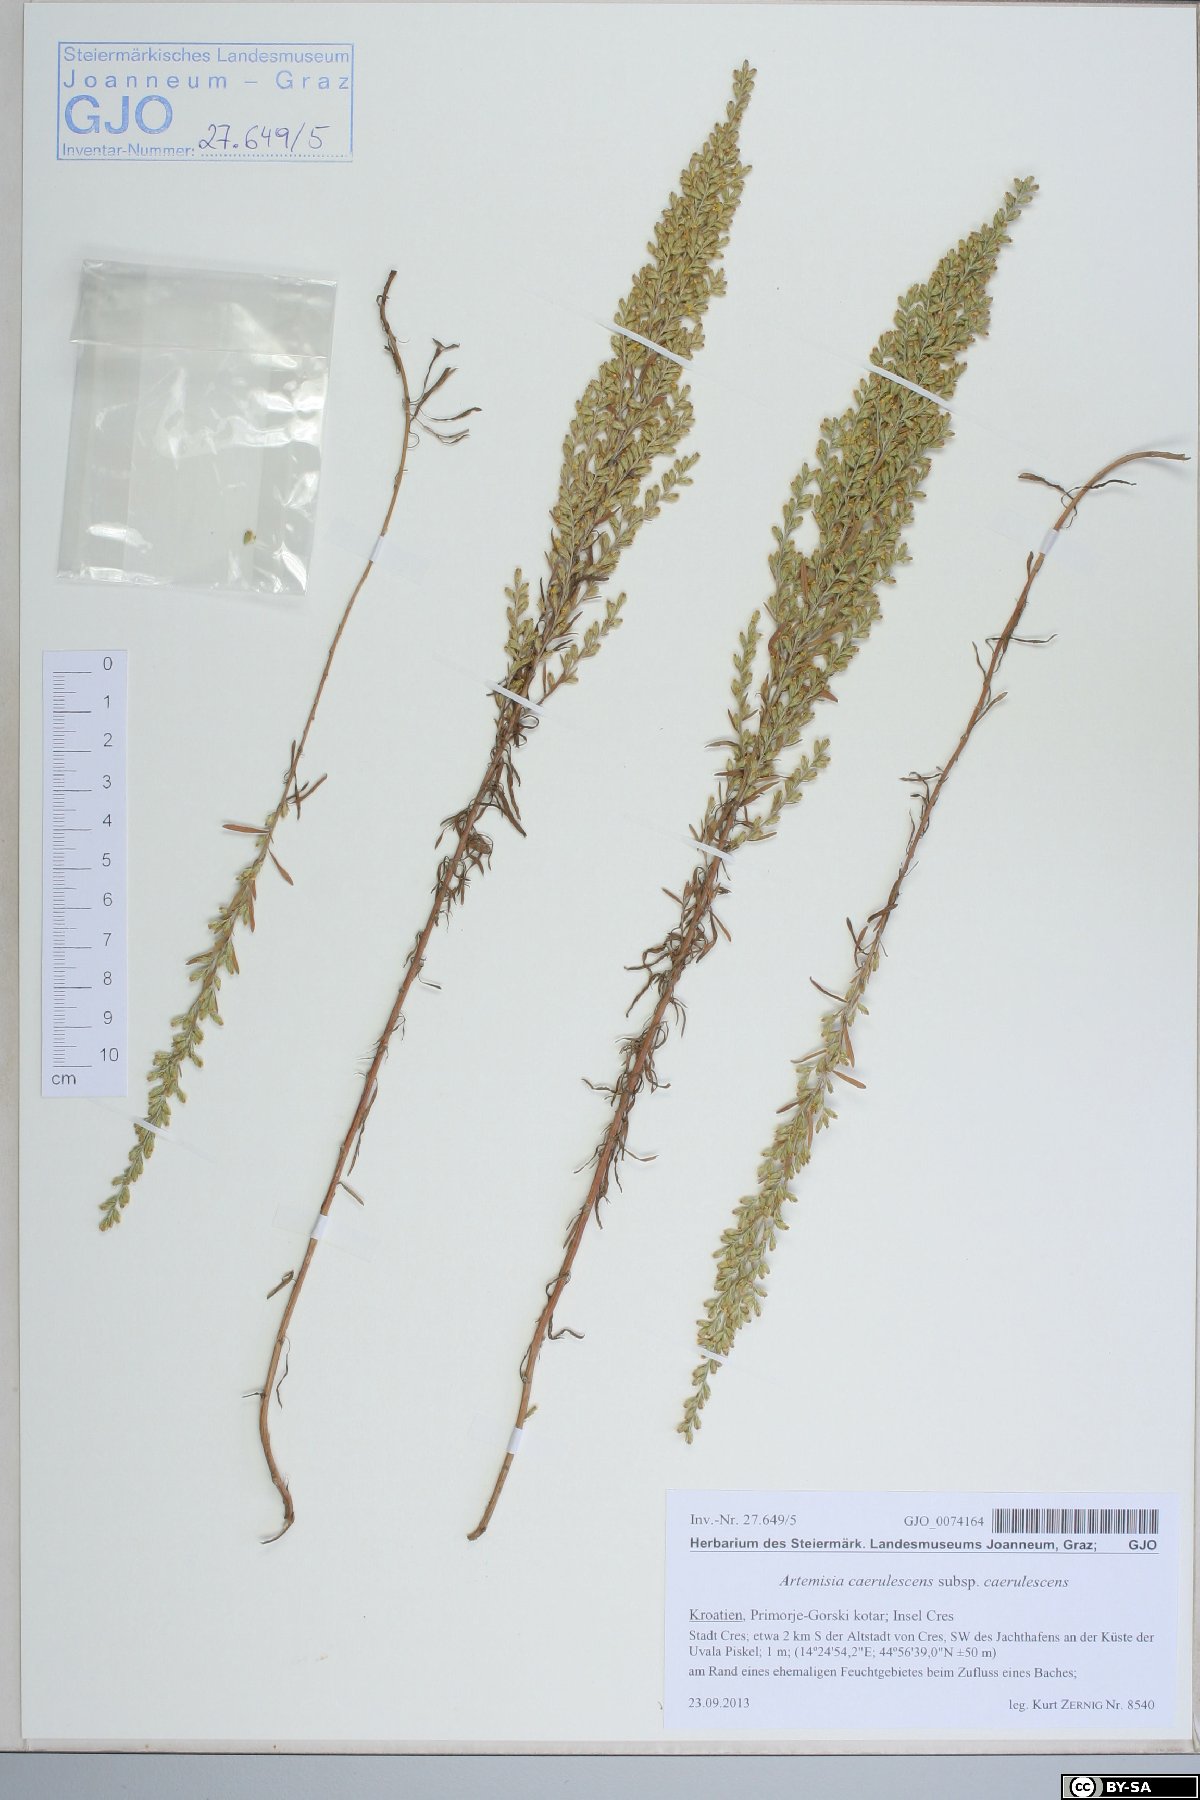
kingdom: Plantae
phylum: Tracheophyta
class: Magnoliopsida
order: Asterales
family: Asteraceae
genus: Artemisia
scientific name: Artemisia caerulescens
